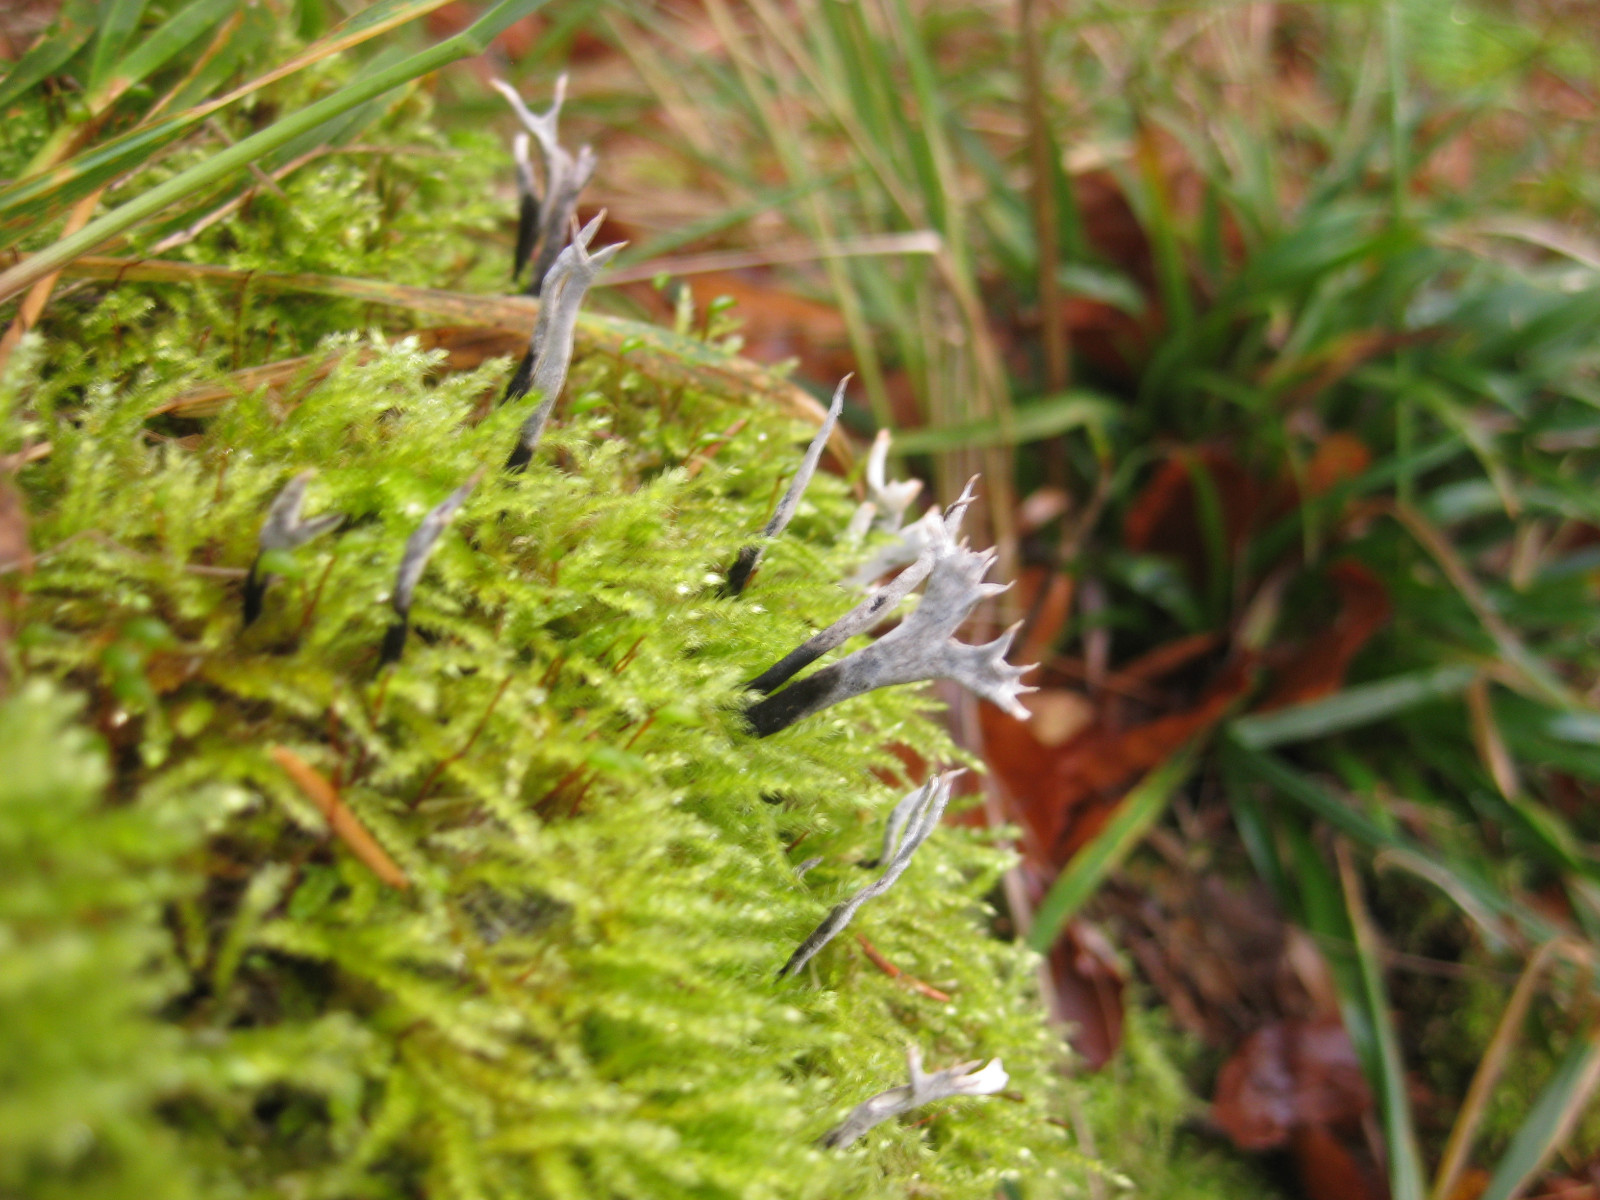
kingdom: Fungi
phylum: Ascomycota
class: Sordariomycetes
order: Xylariales
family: Xylariaceae
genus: Xylaria
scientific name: Xylaria hypoxylon
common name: grenet stødsvamp
